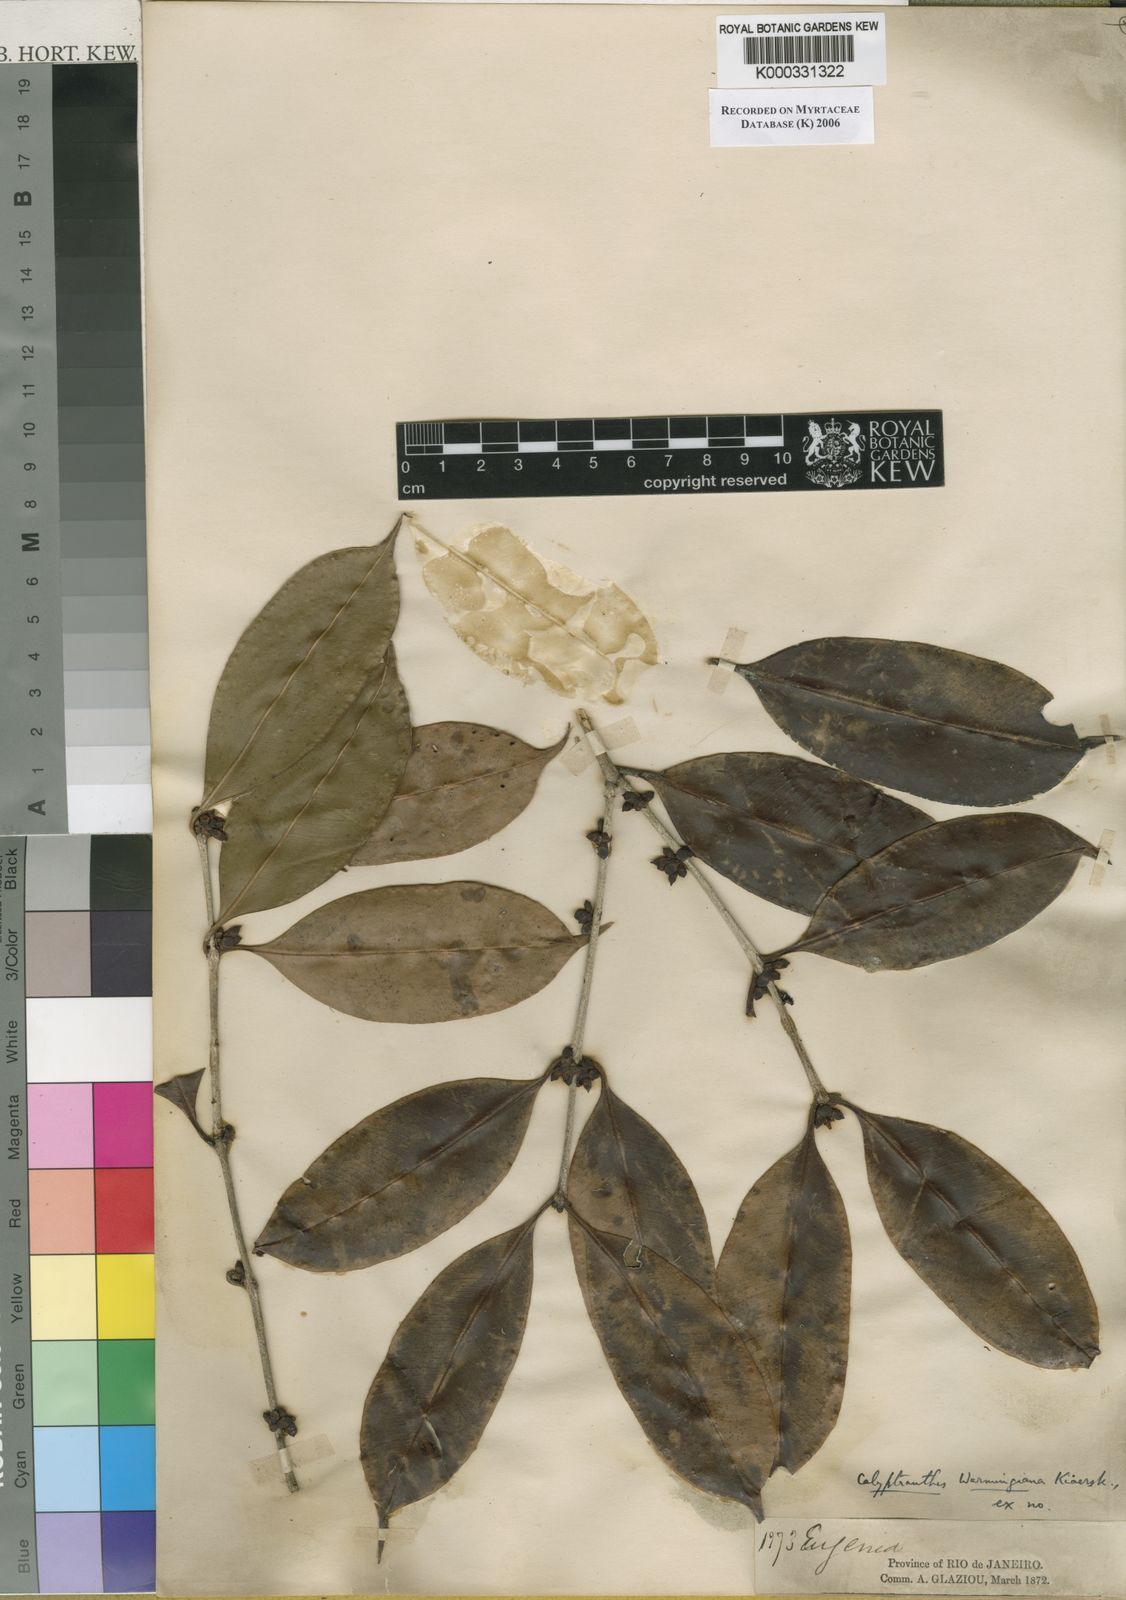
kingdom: Plantae
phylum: Tracheophyta
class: Magnoliopsida
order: Myrtales
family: Myrtaceae
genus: Neomitranthes
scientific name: Neomitranthes warmingiana
